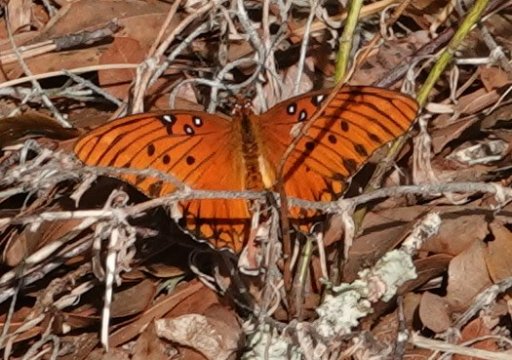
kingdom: Animalia
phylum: Arthropoda
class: Insecta
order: Lepidoptera
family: Nymphalidae
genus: Dione
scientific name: Dione vanillae
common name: Gulf Fritillary
